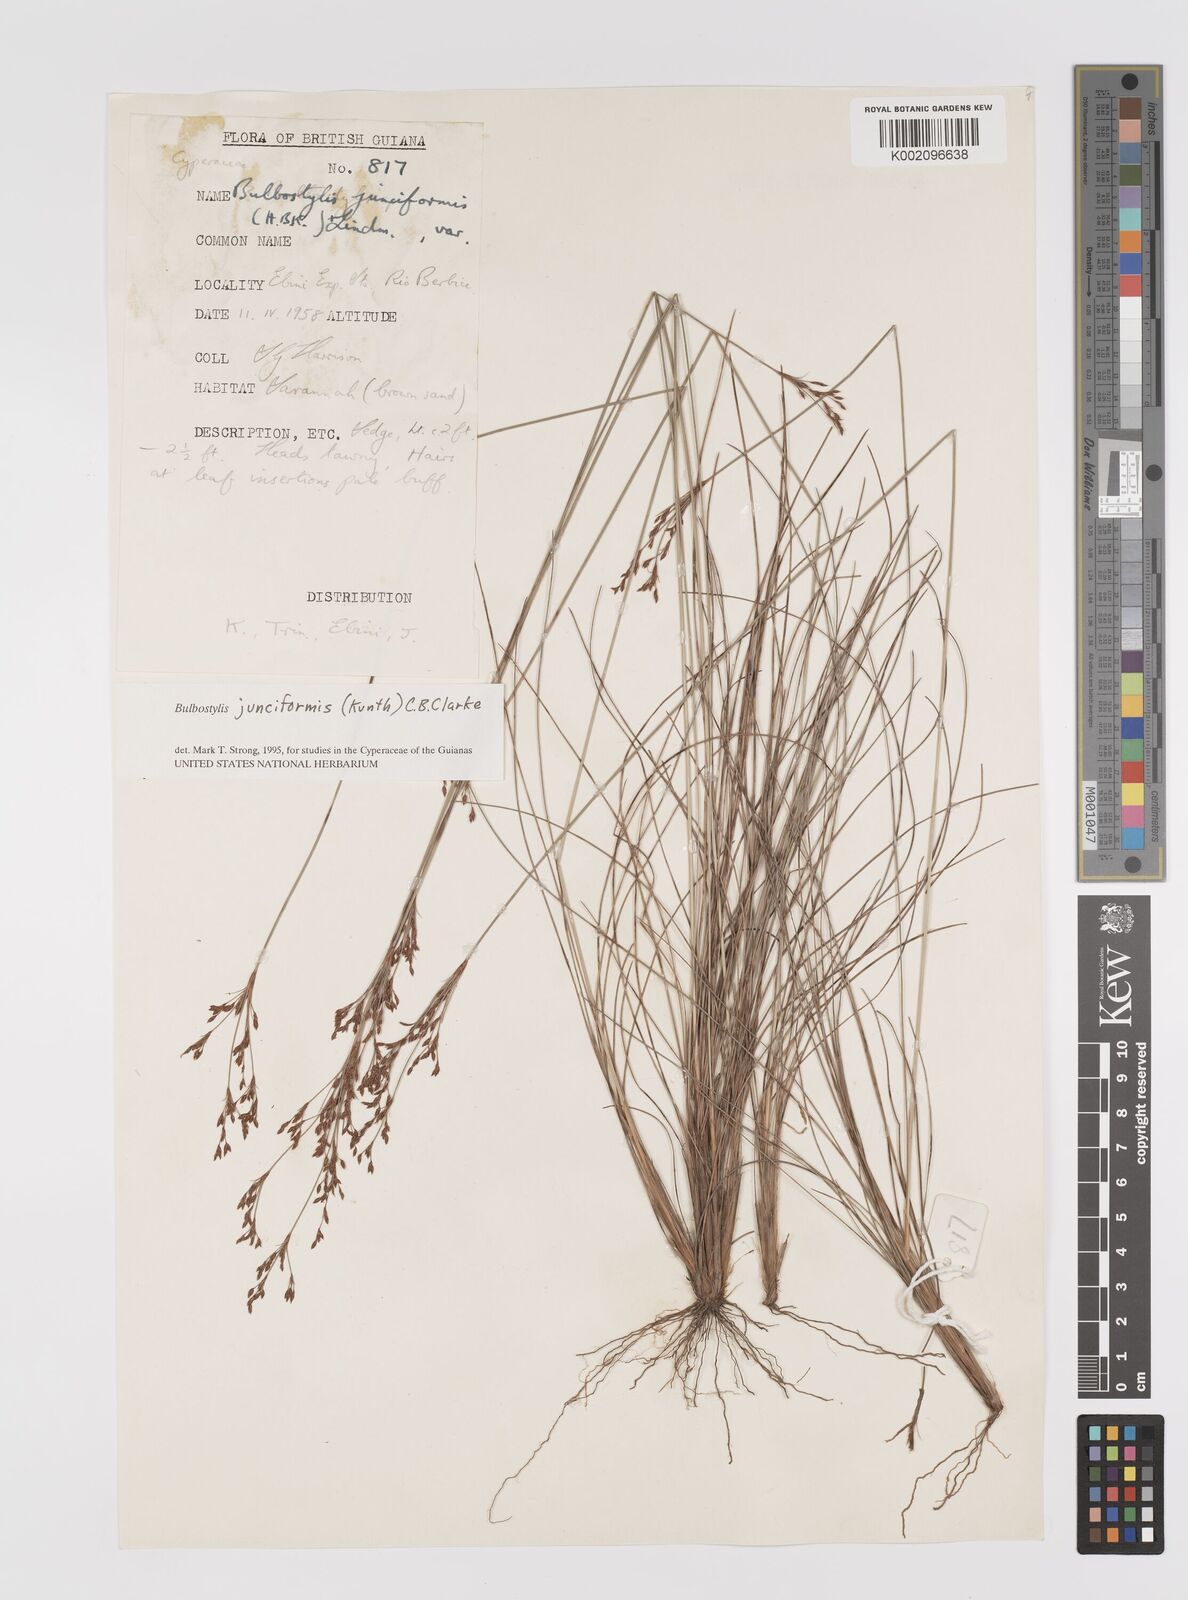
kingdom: Plantae
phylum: Tracheophyta
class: Liliopsida
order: Poales
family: Cyperaceae
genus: Bulbostylis
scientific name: Bulbostylis junciformis
